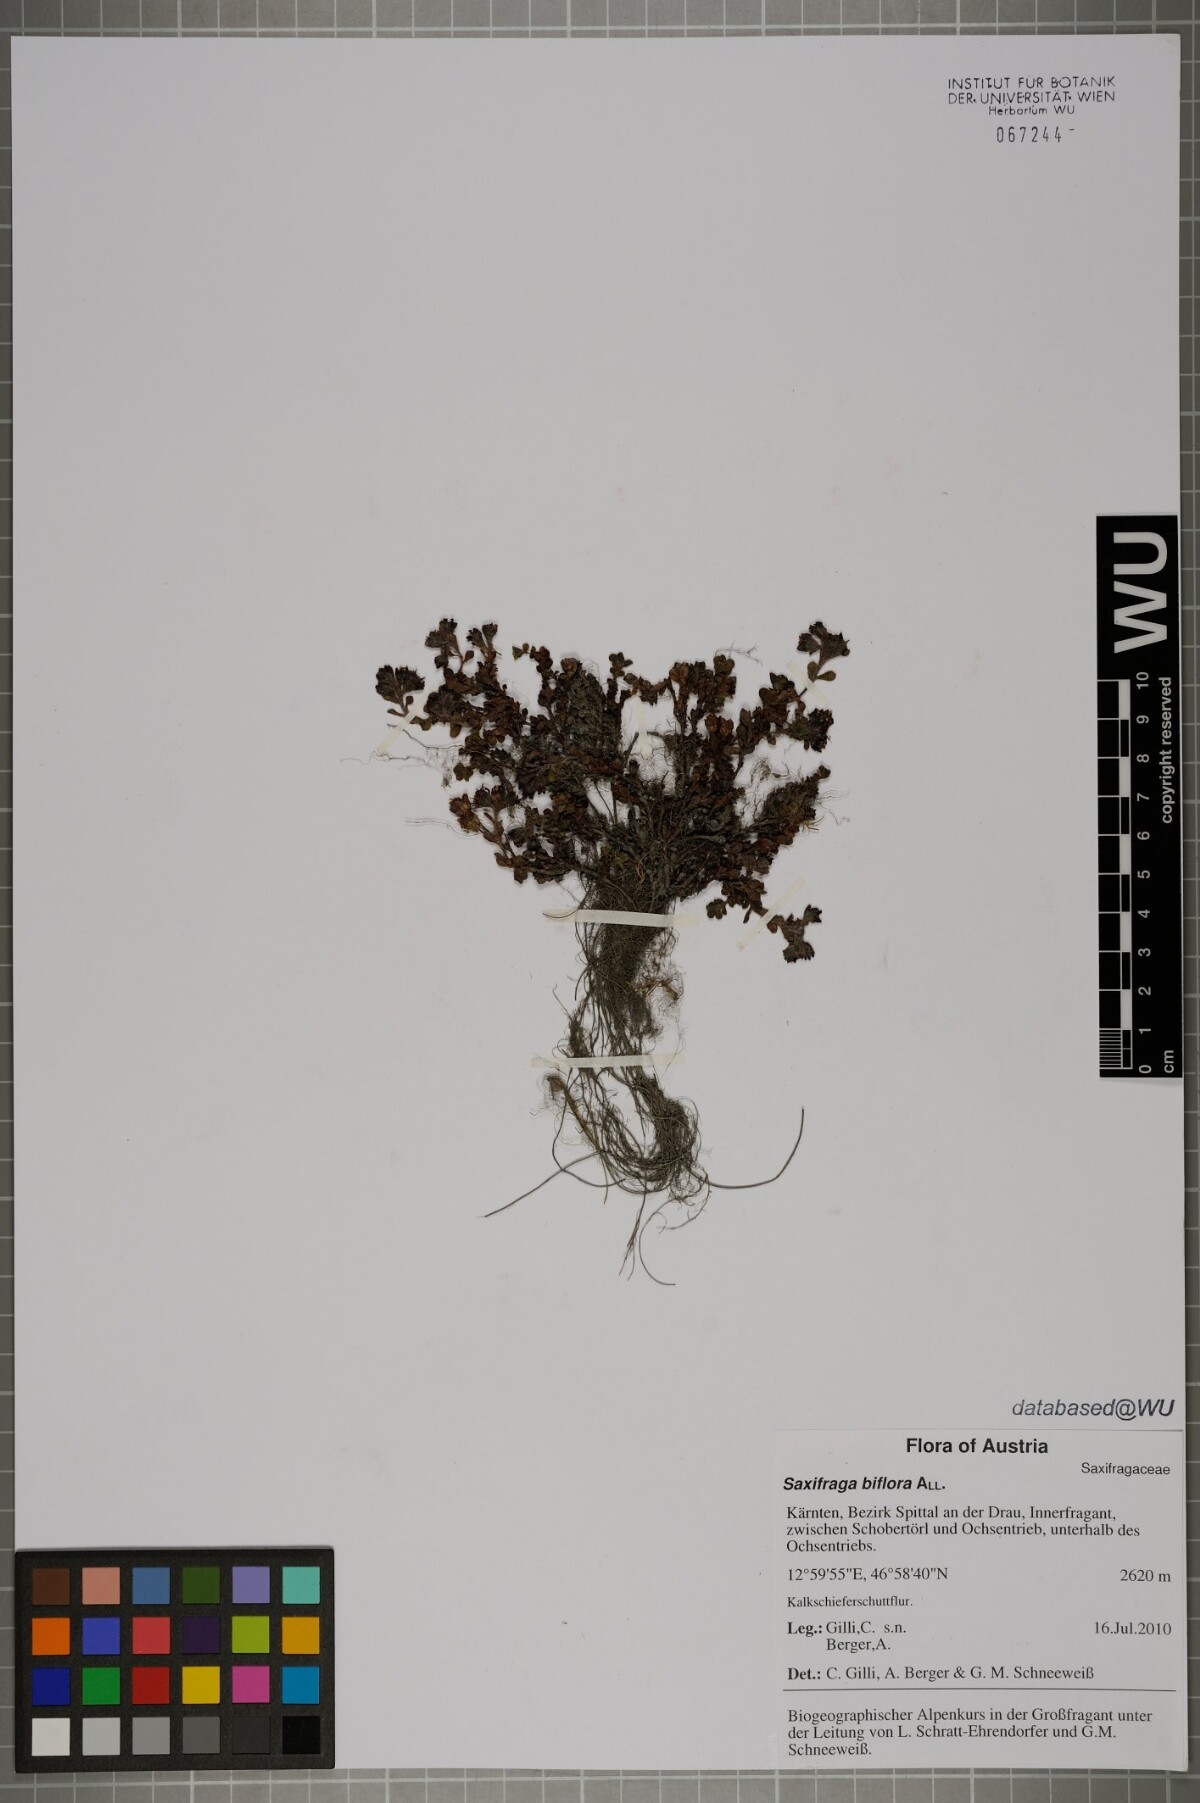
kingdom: Plantae
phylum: Tracheophyta
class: Magnoliopsida
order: Saxifragales
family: Saxifragaceae
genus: Saxifraga
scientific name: Saxifraga biflora
